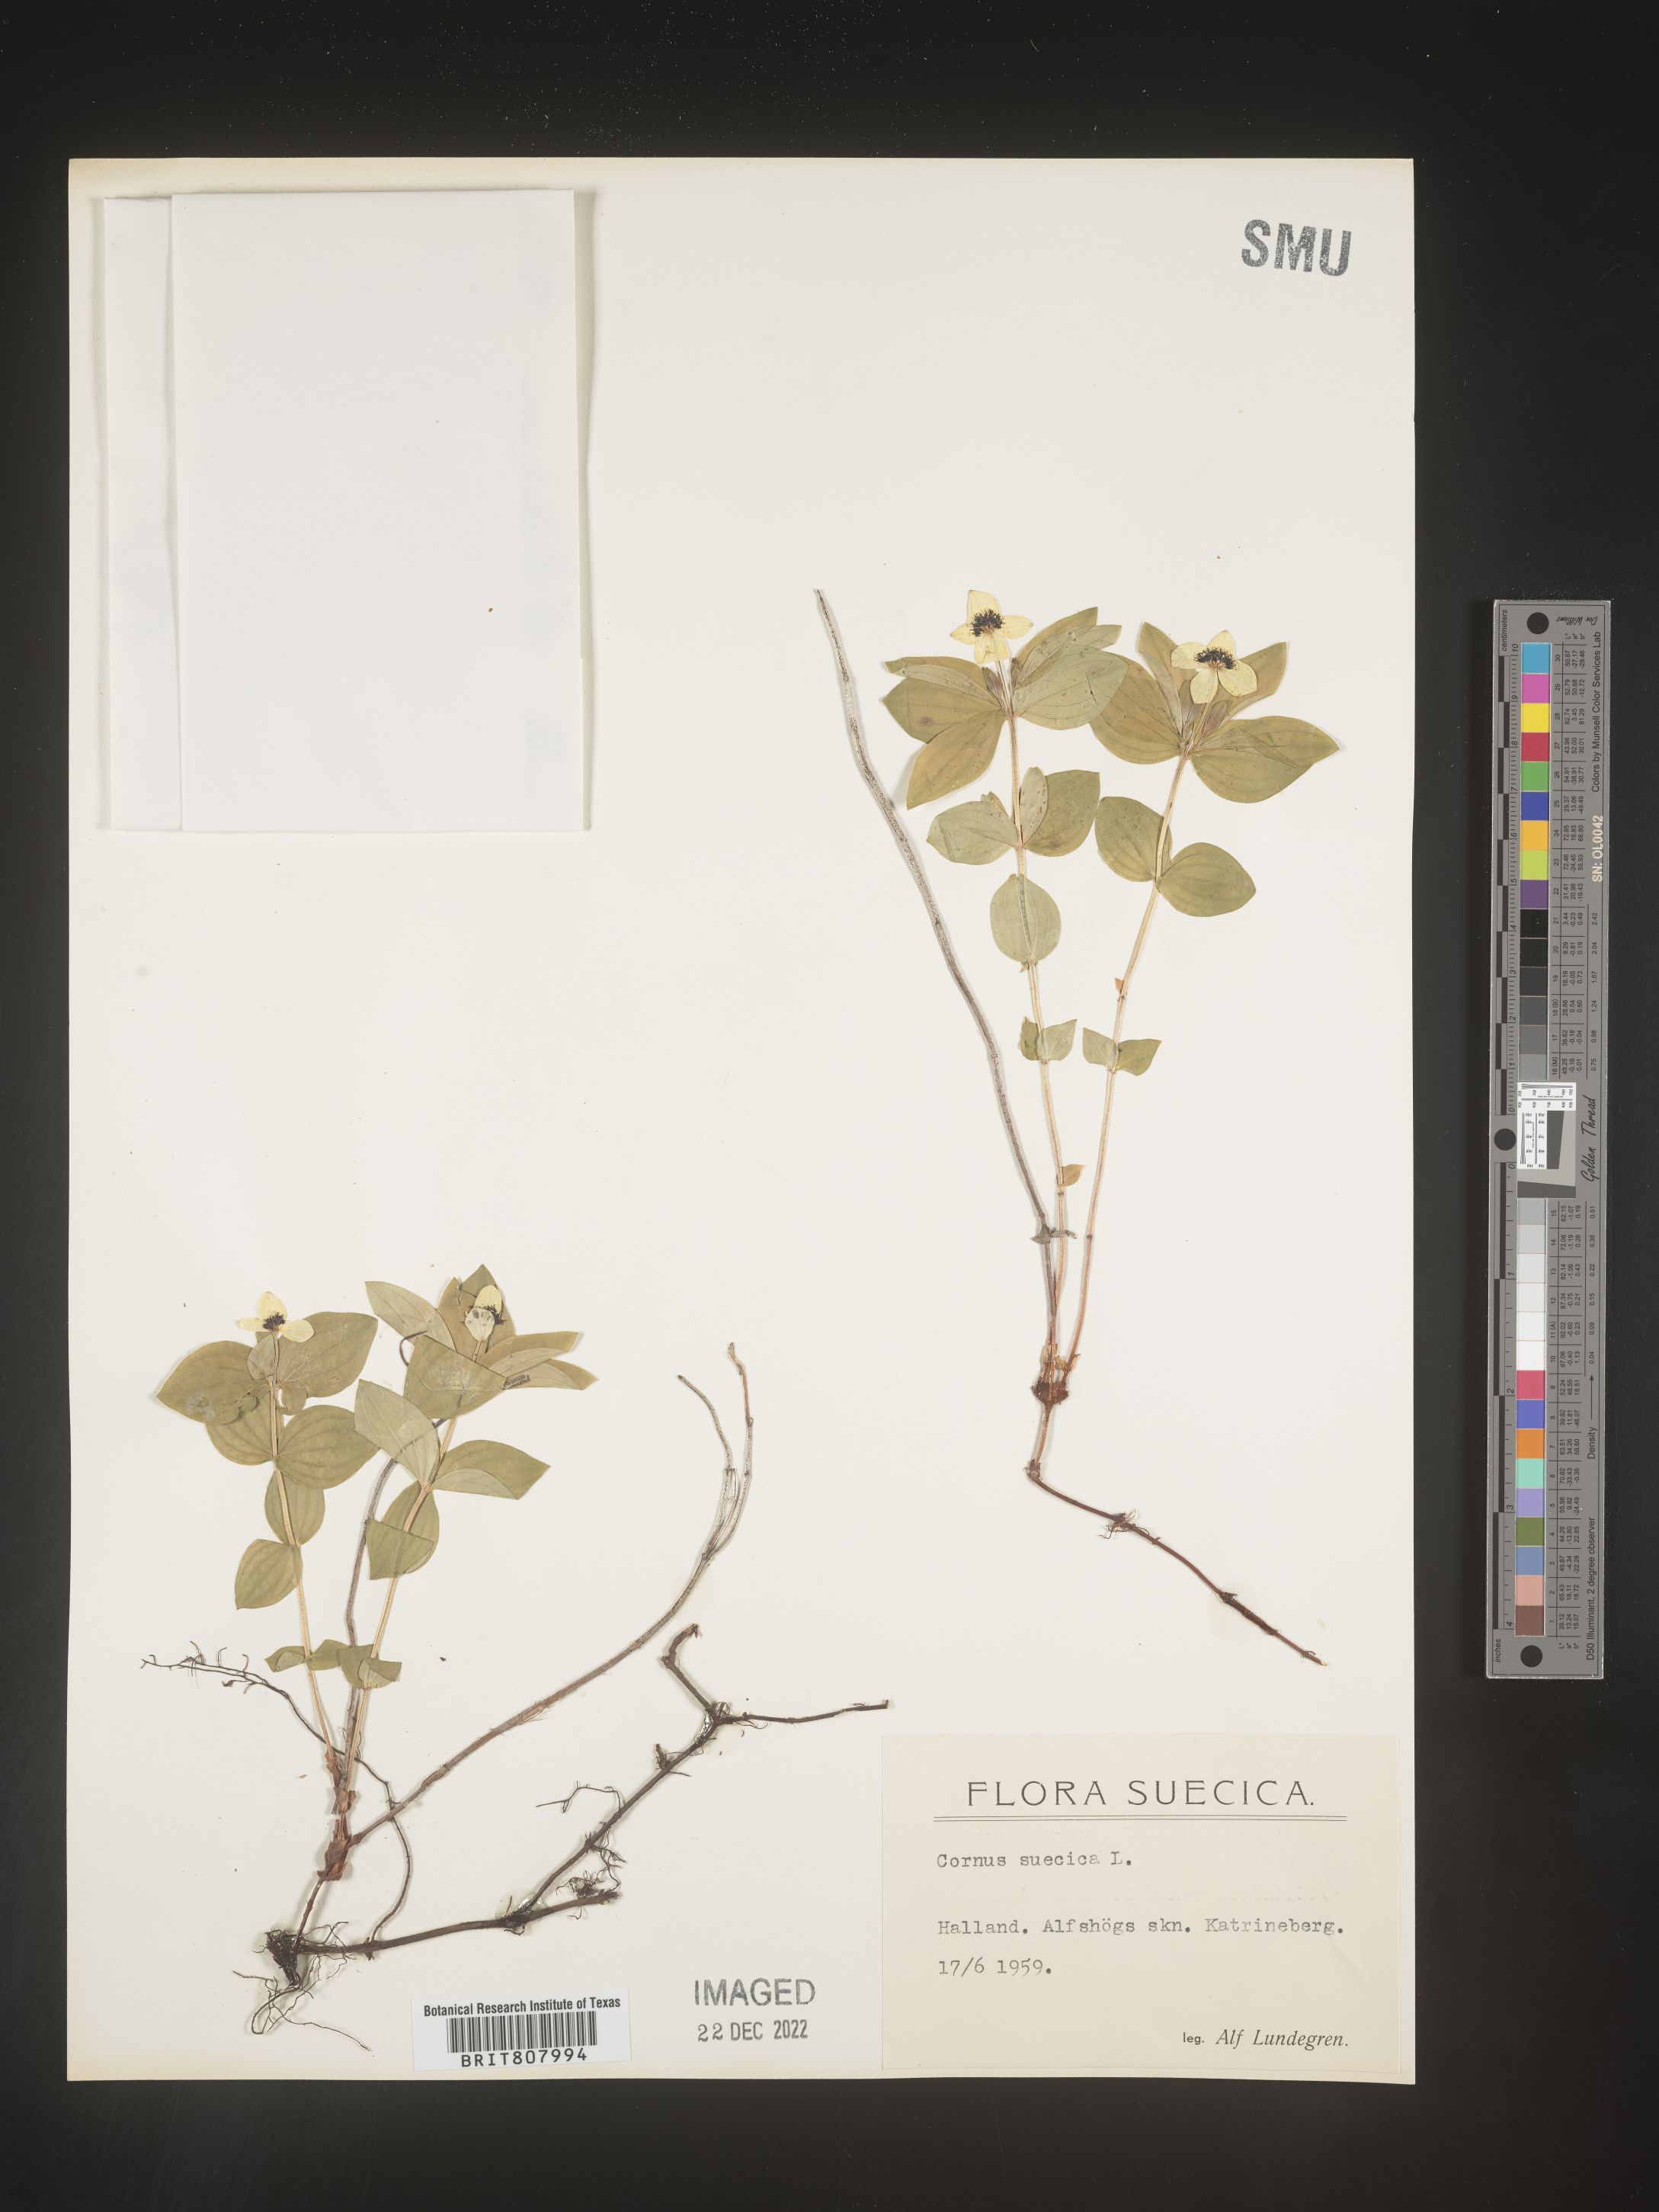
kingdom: Plantae
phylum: Tracheophyta
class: Magnoliopsida
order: Cornales
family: Cornaceae
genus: Cornus
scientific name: Cornus
